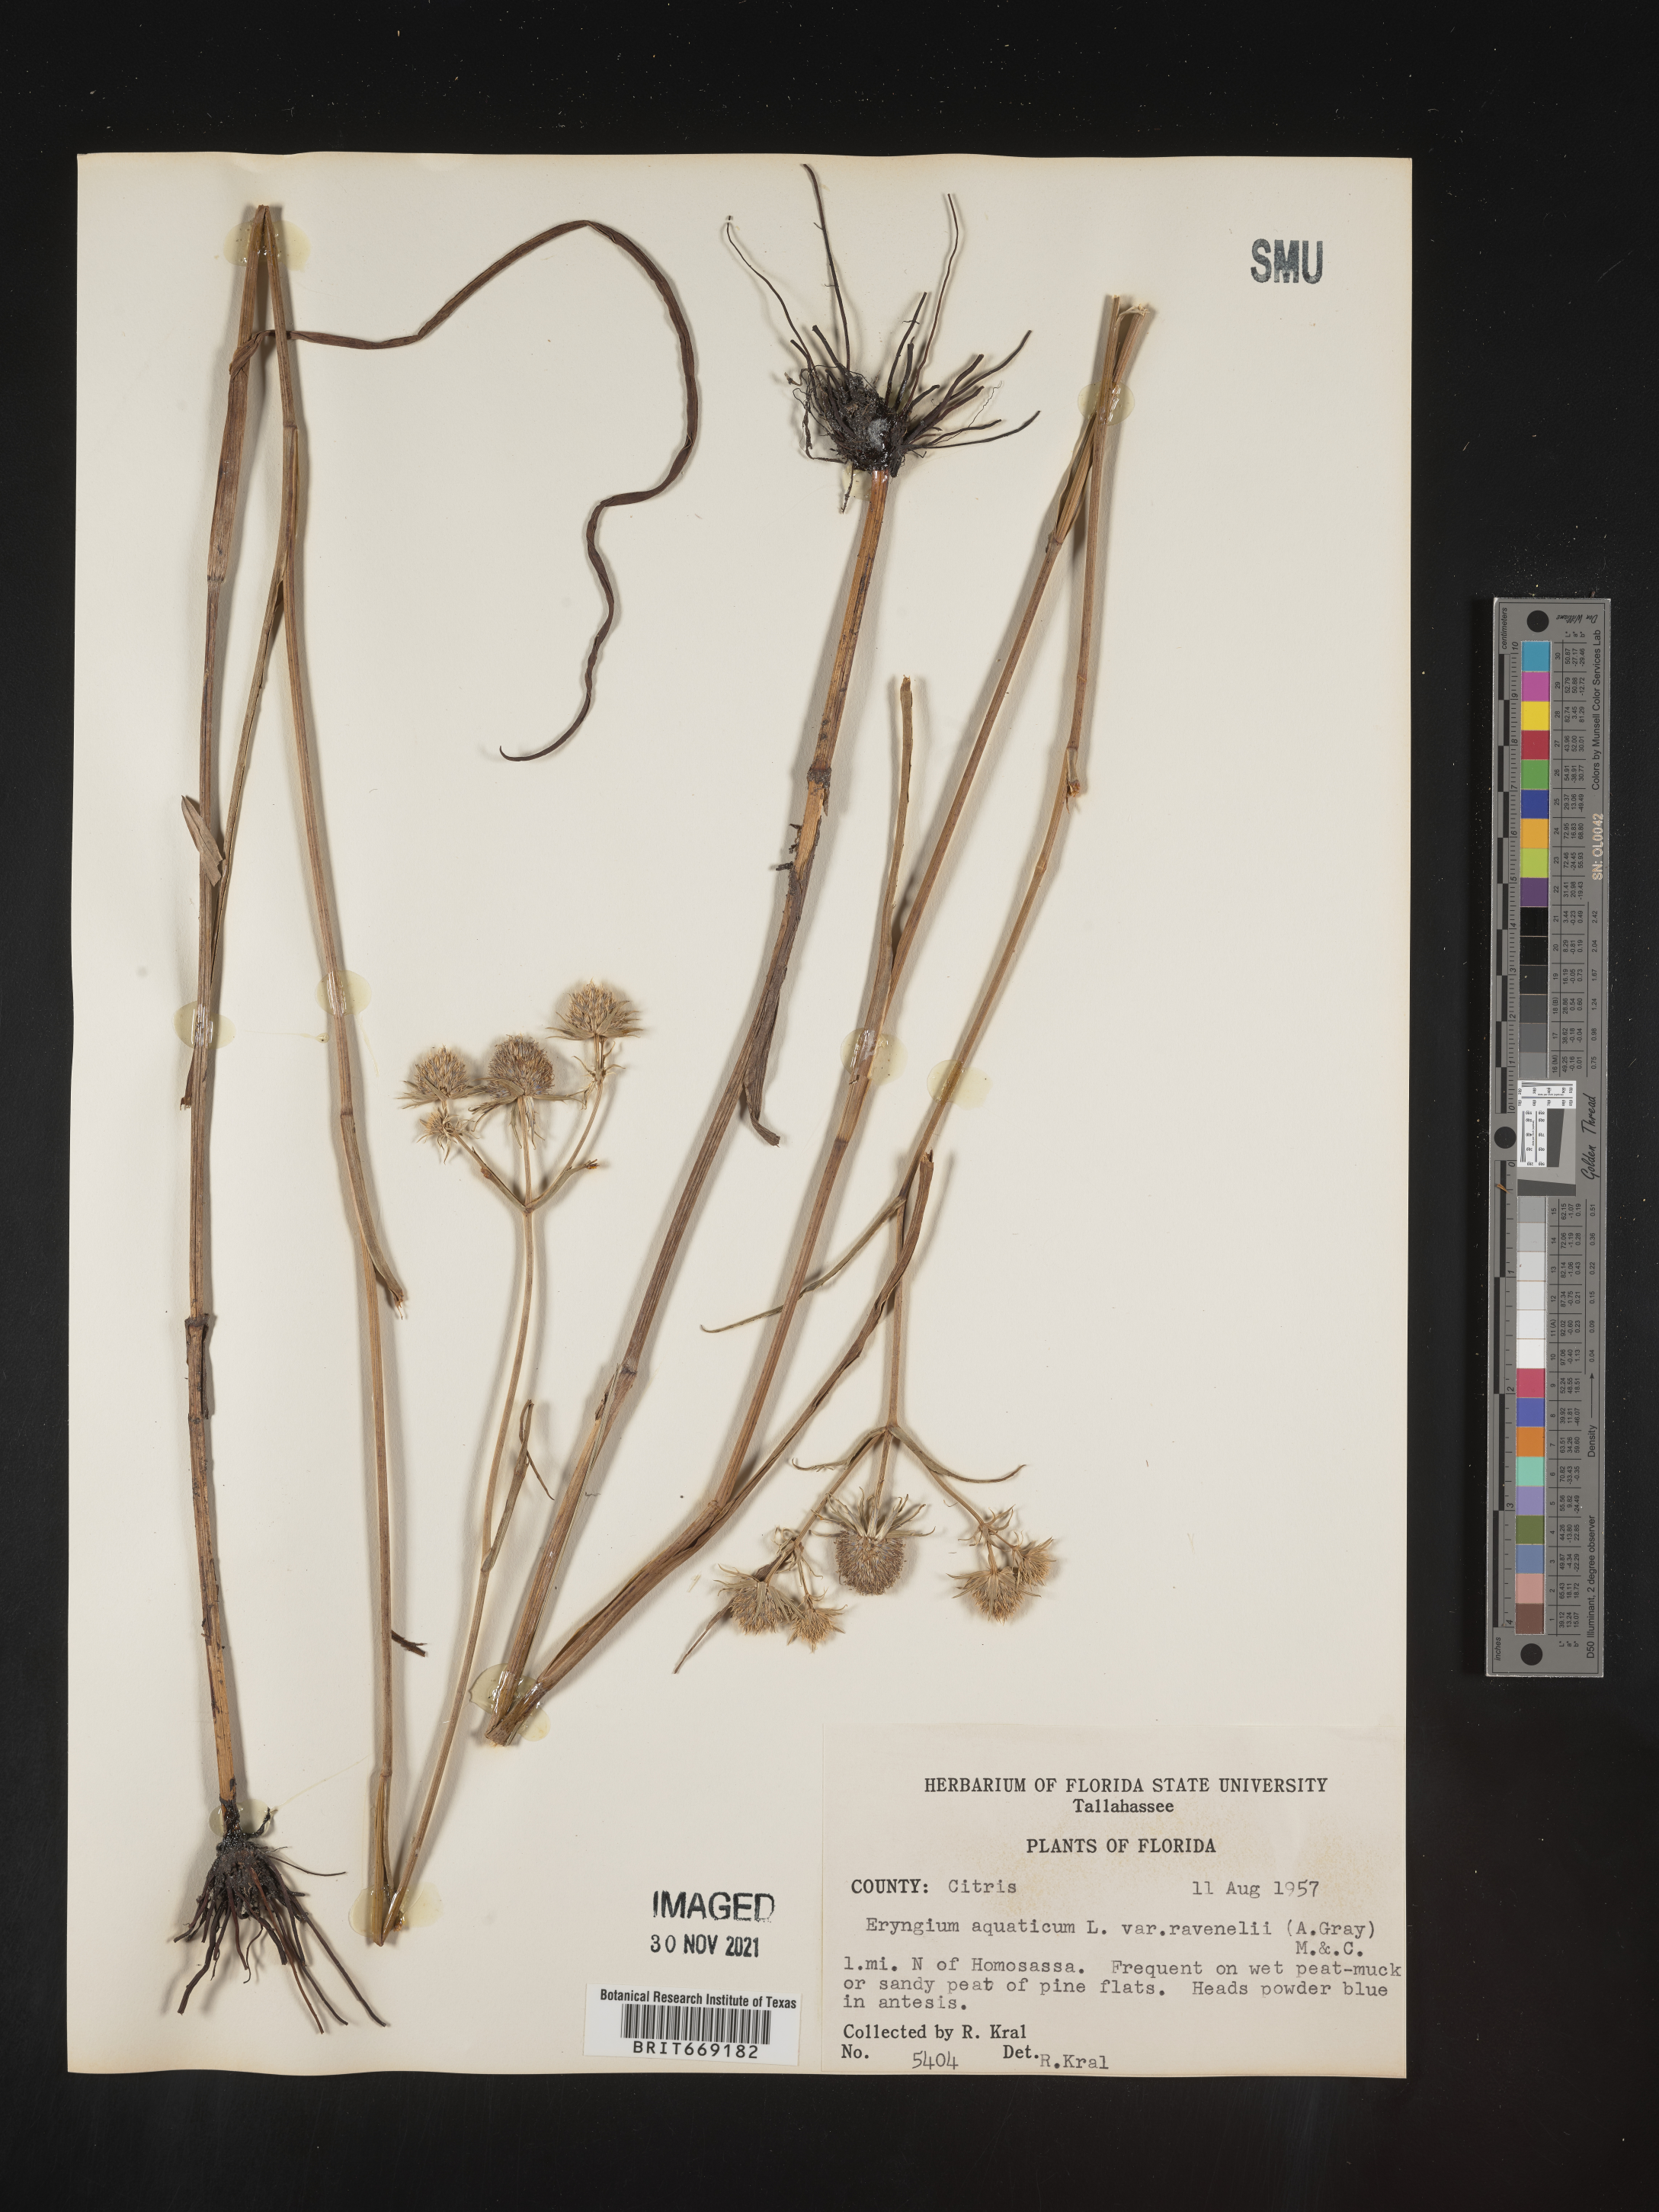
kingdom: Plantae
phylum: Tracheophyta
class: Magnoliopsida
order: Apiales
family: Apiaceae
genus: Eryngium
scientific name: Eryngium aquaticum
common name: Water eryngo
